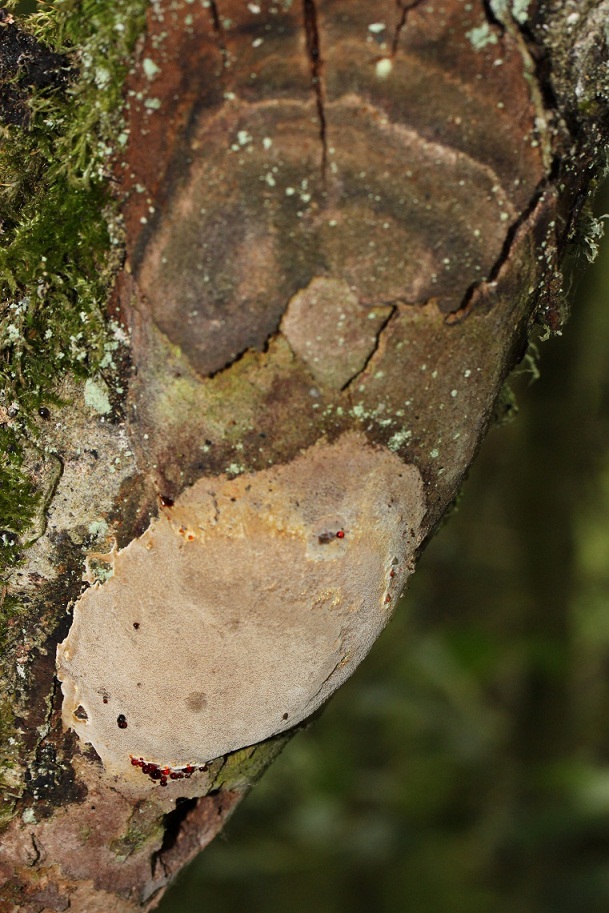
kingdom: Fungi
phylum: Basidiomycota
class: Agaricomycetes
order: Hymenochaetales
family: Hymenochaetaceae
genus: Fomitiporia
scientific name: Fomitiporia punctata
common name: pude-ildporesvamp
